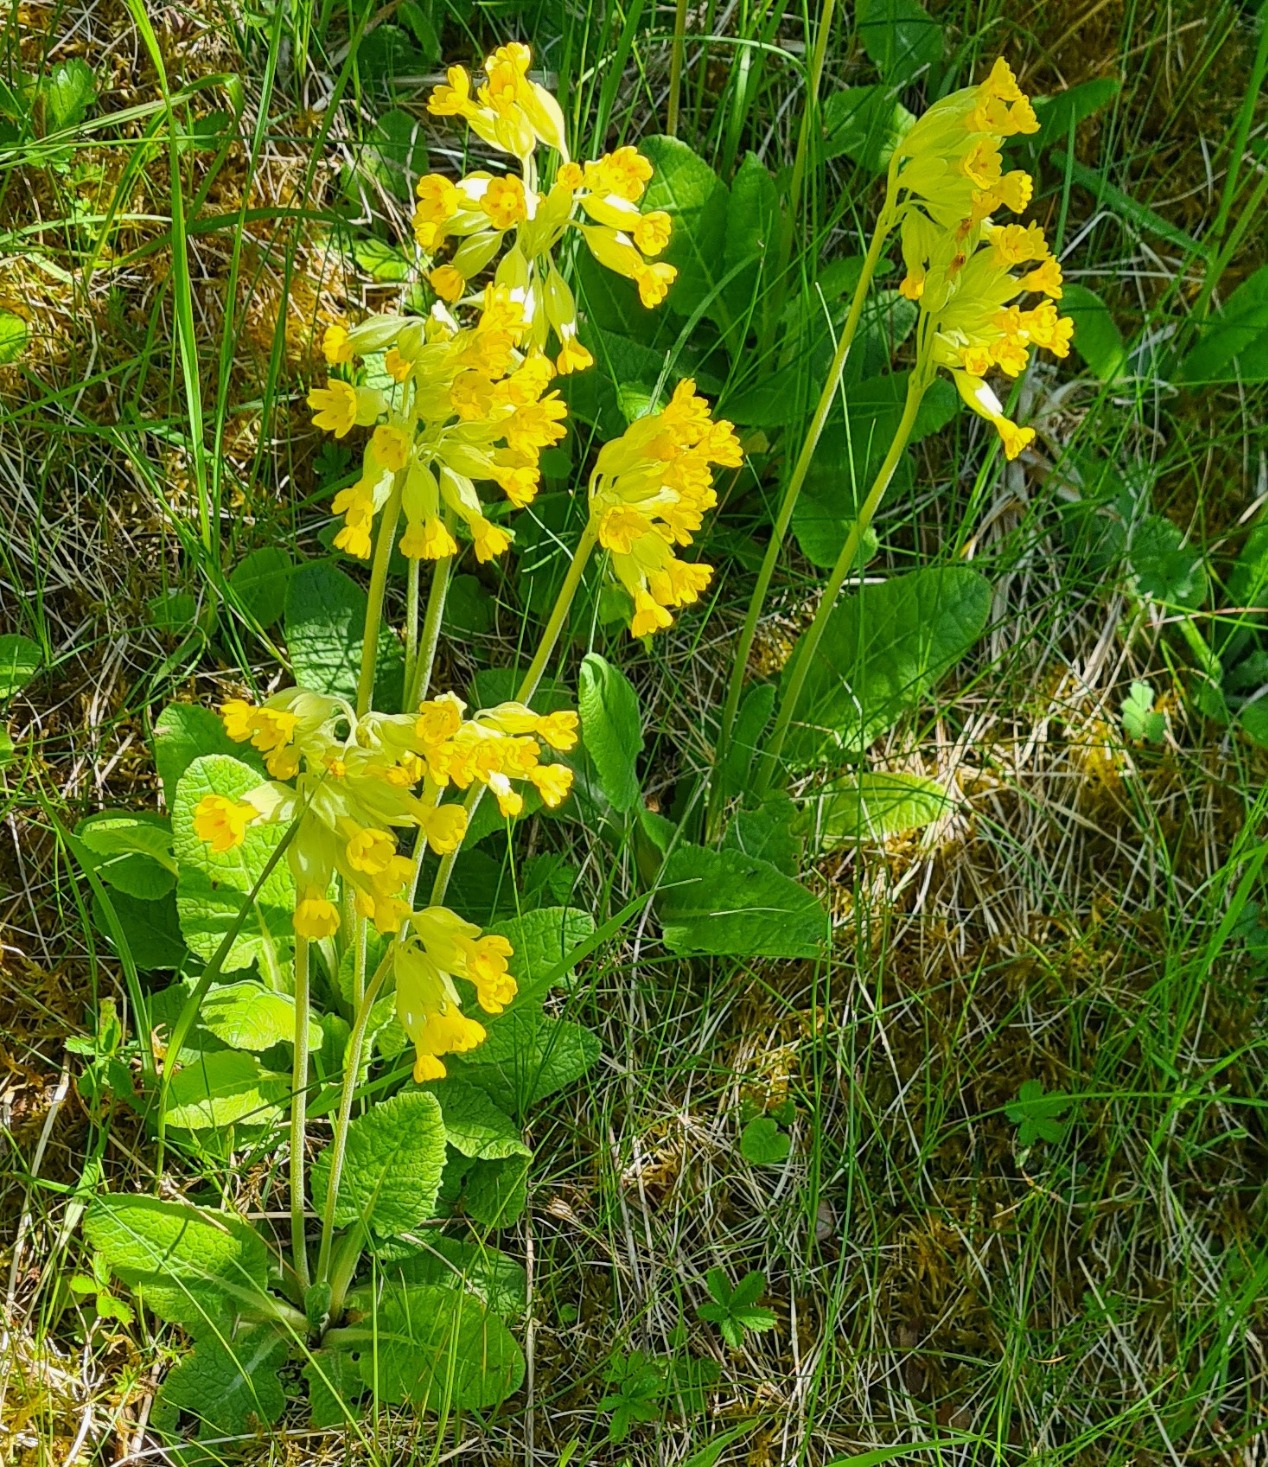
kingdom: Plantae
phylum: Tracheophyta
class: Magnoliopsida
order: Ericales
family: Primulaceae
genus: Primula
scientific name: Primula veris
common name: Hulkravet kodriver
